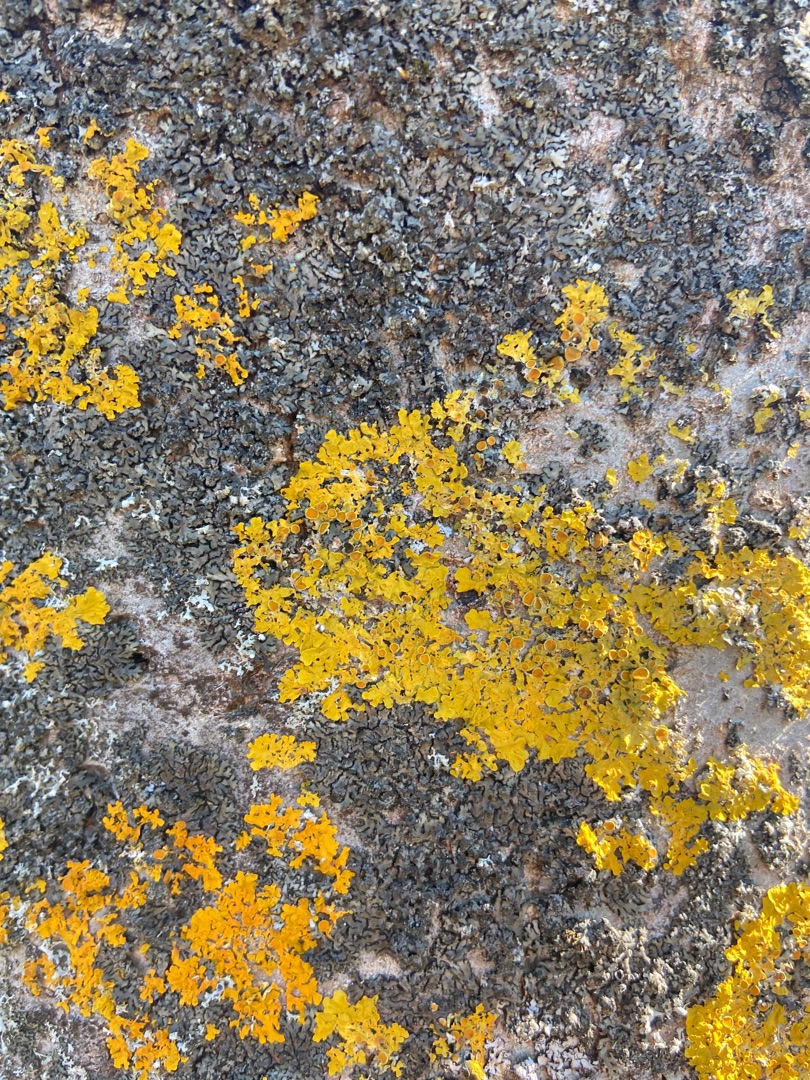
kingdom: Fungi
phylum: Ascomycota
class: Lecanoromycetes
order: Teloschistales
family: Teloschistaceae
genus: Xanthoria
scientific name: Xanthoria parietina
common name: Almindelig væggelav
